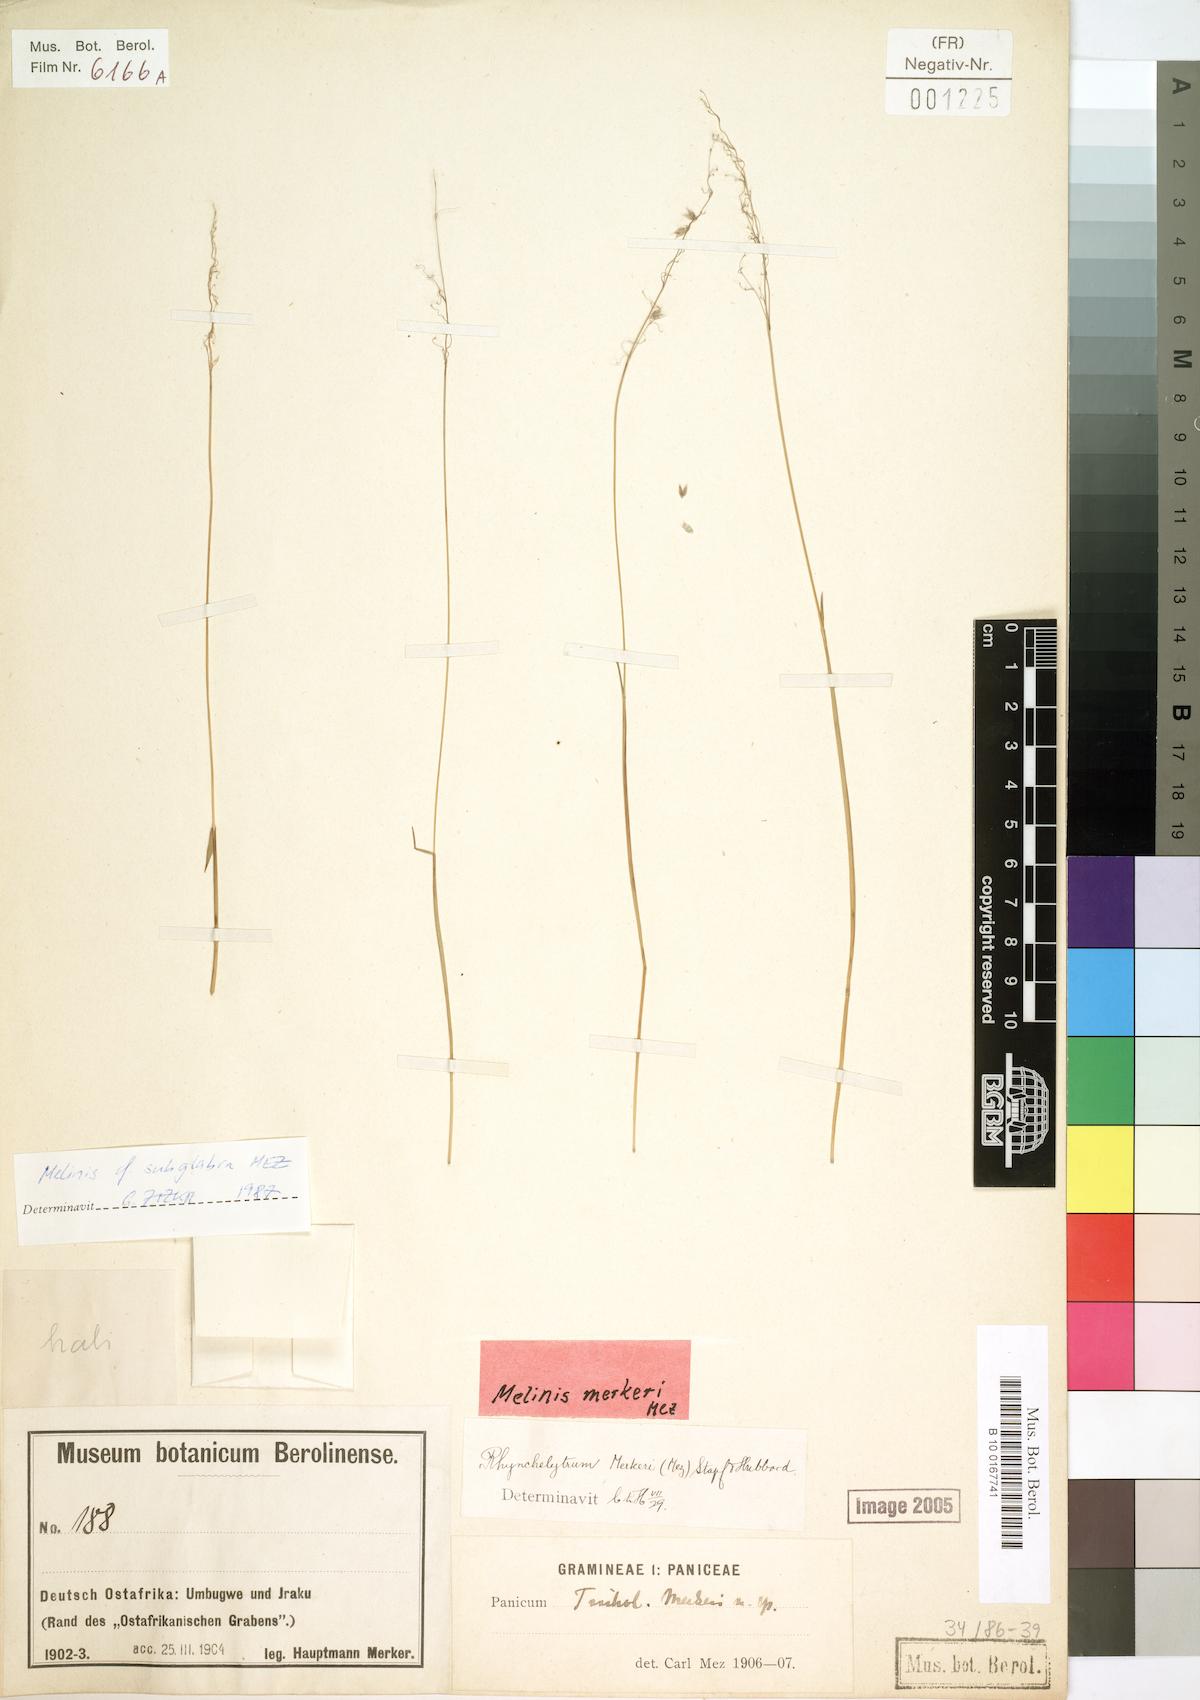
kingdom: Plantae
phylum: Tracheophyta
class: Liliopsida
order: Poales
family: Poaceae
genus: Melinis
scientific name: Melinis subglabra
